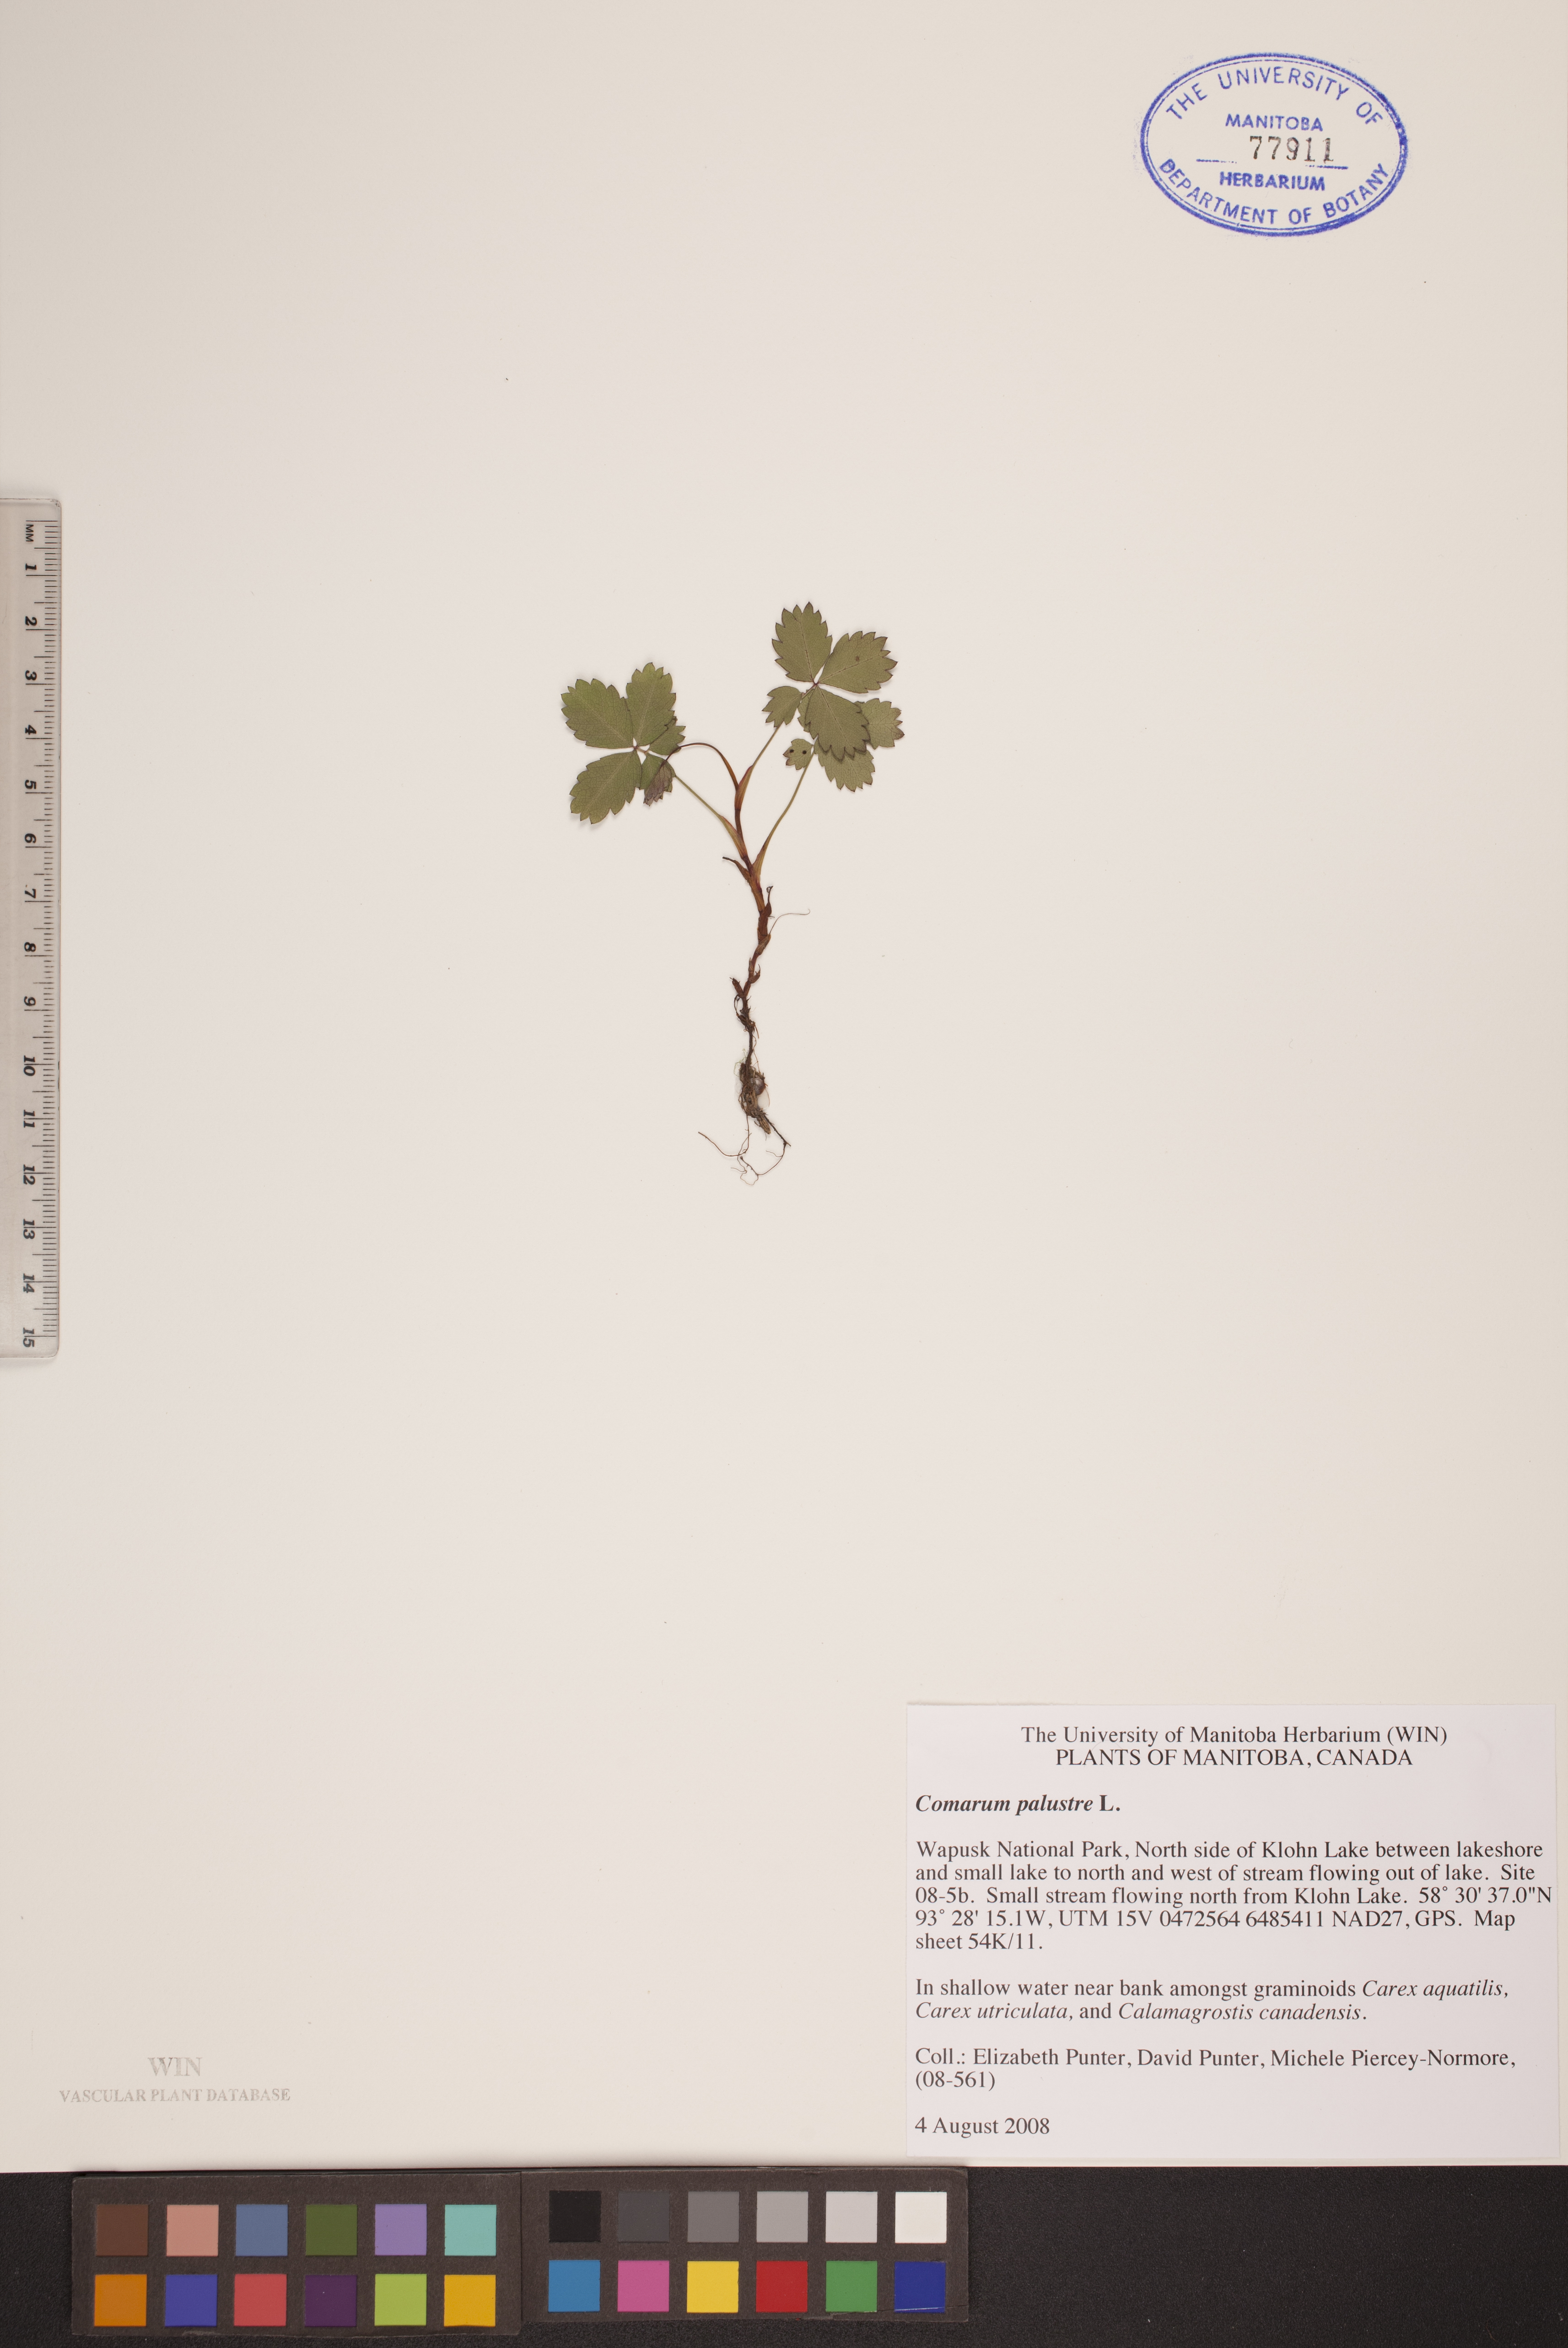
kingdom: Plantae
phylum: Tracheophyta
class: Magnoliopsida
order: Rosales
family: Rosaceae
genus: Comarum
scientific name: Comarum palustre
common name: Marsh cinquefoil
